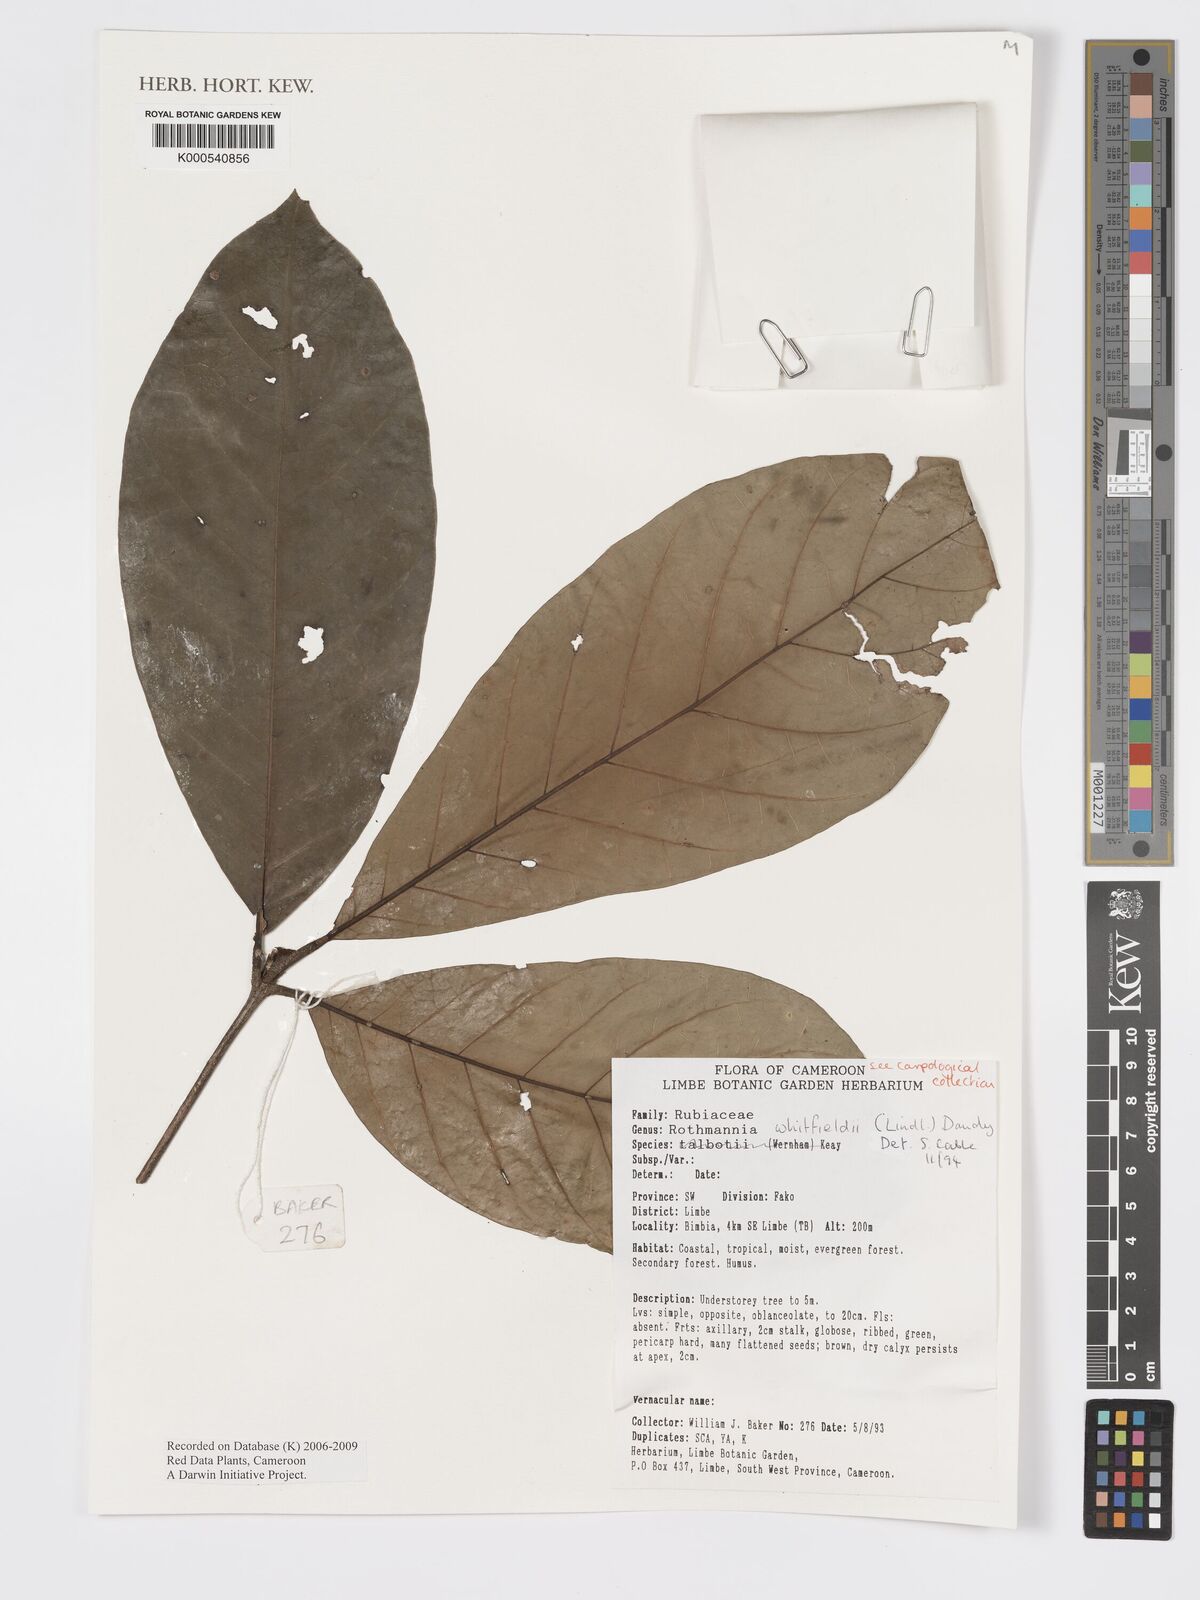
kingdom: Plantae
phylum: Tracheophyta
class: Magnoliopsida
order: Gentianales
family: Rubiaceae
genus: Rothmannia
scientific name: Rothmannia whitfieldii
